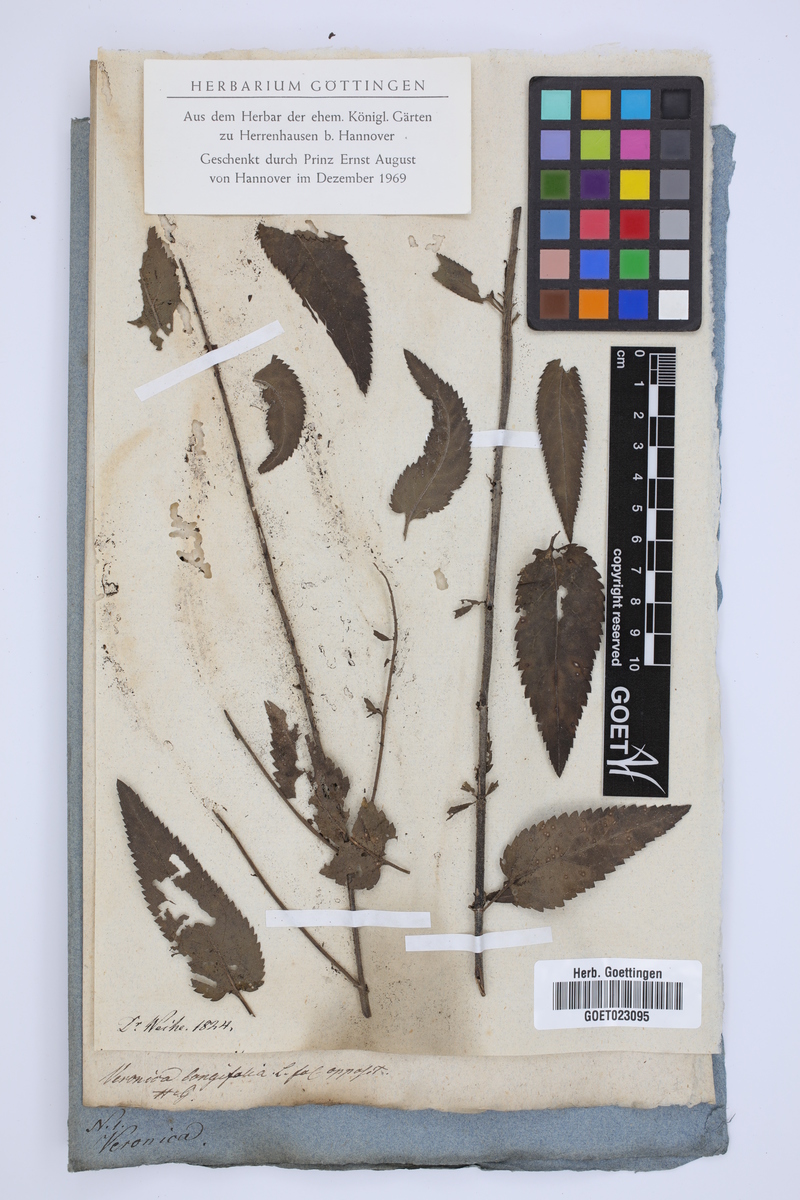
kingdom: Plantae
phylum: Tracheophyta
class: Magnoliopsida
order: Lamiales
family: Plantaginaceae
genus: Veronica
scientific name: Veronica longifolia
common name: Garden speedwell
